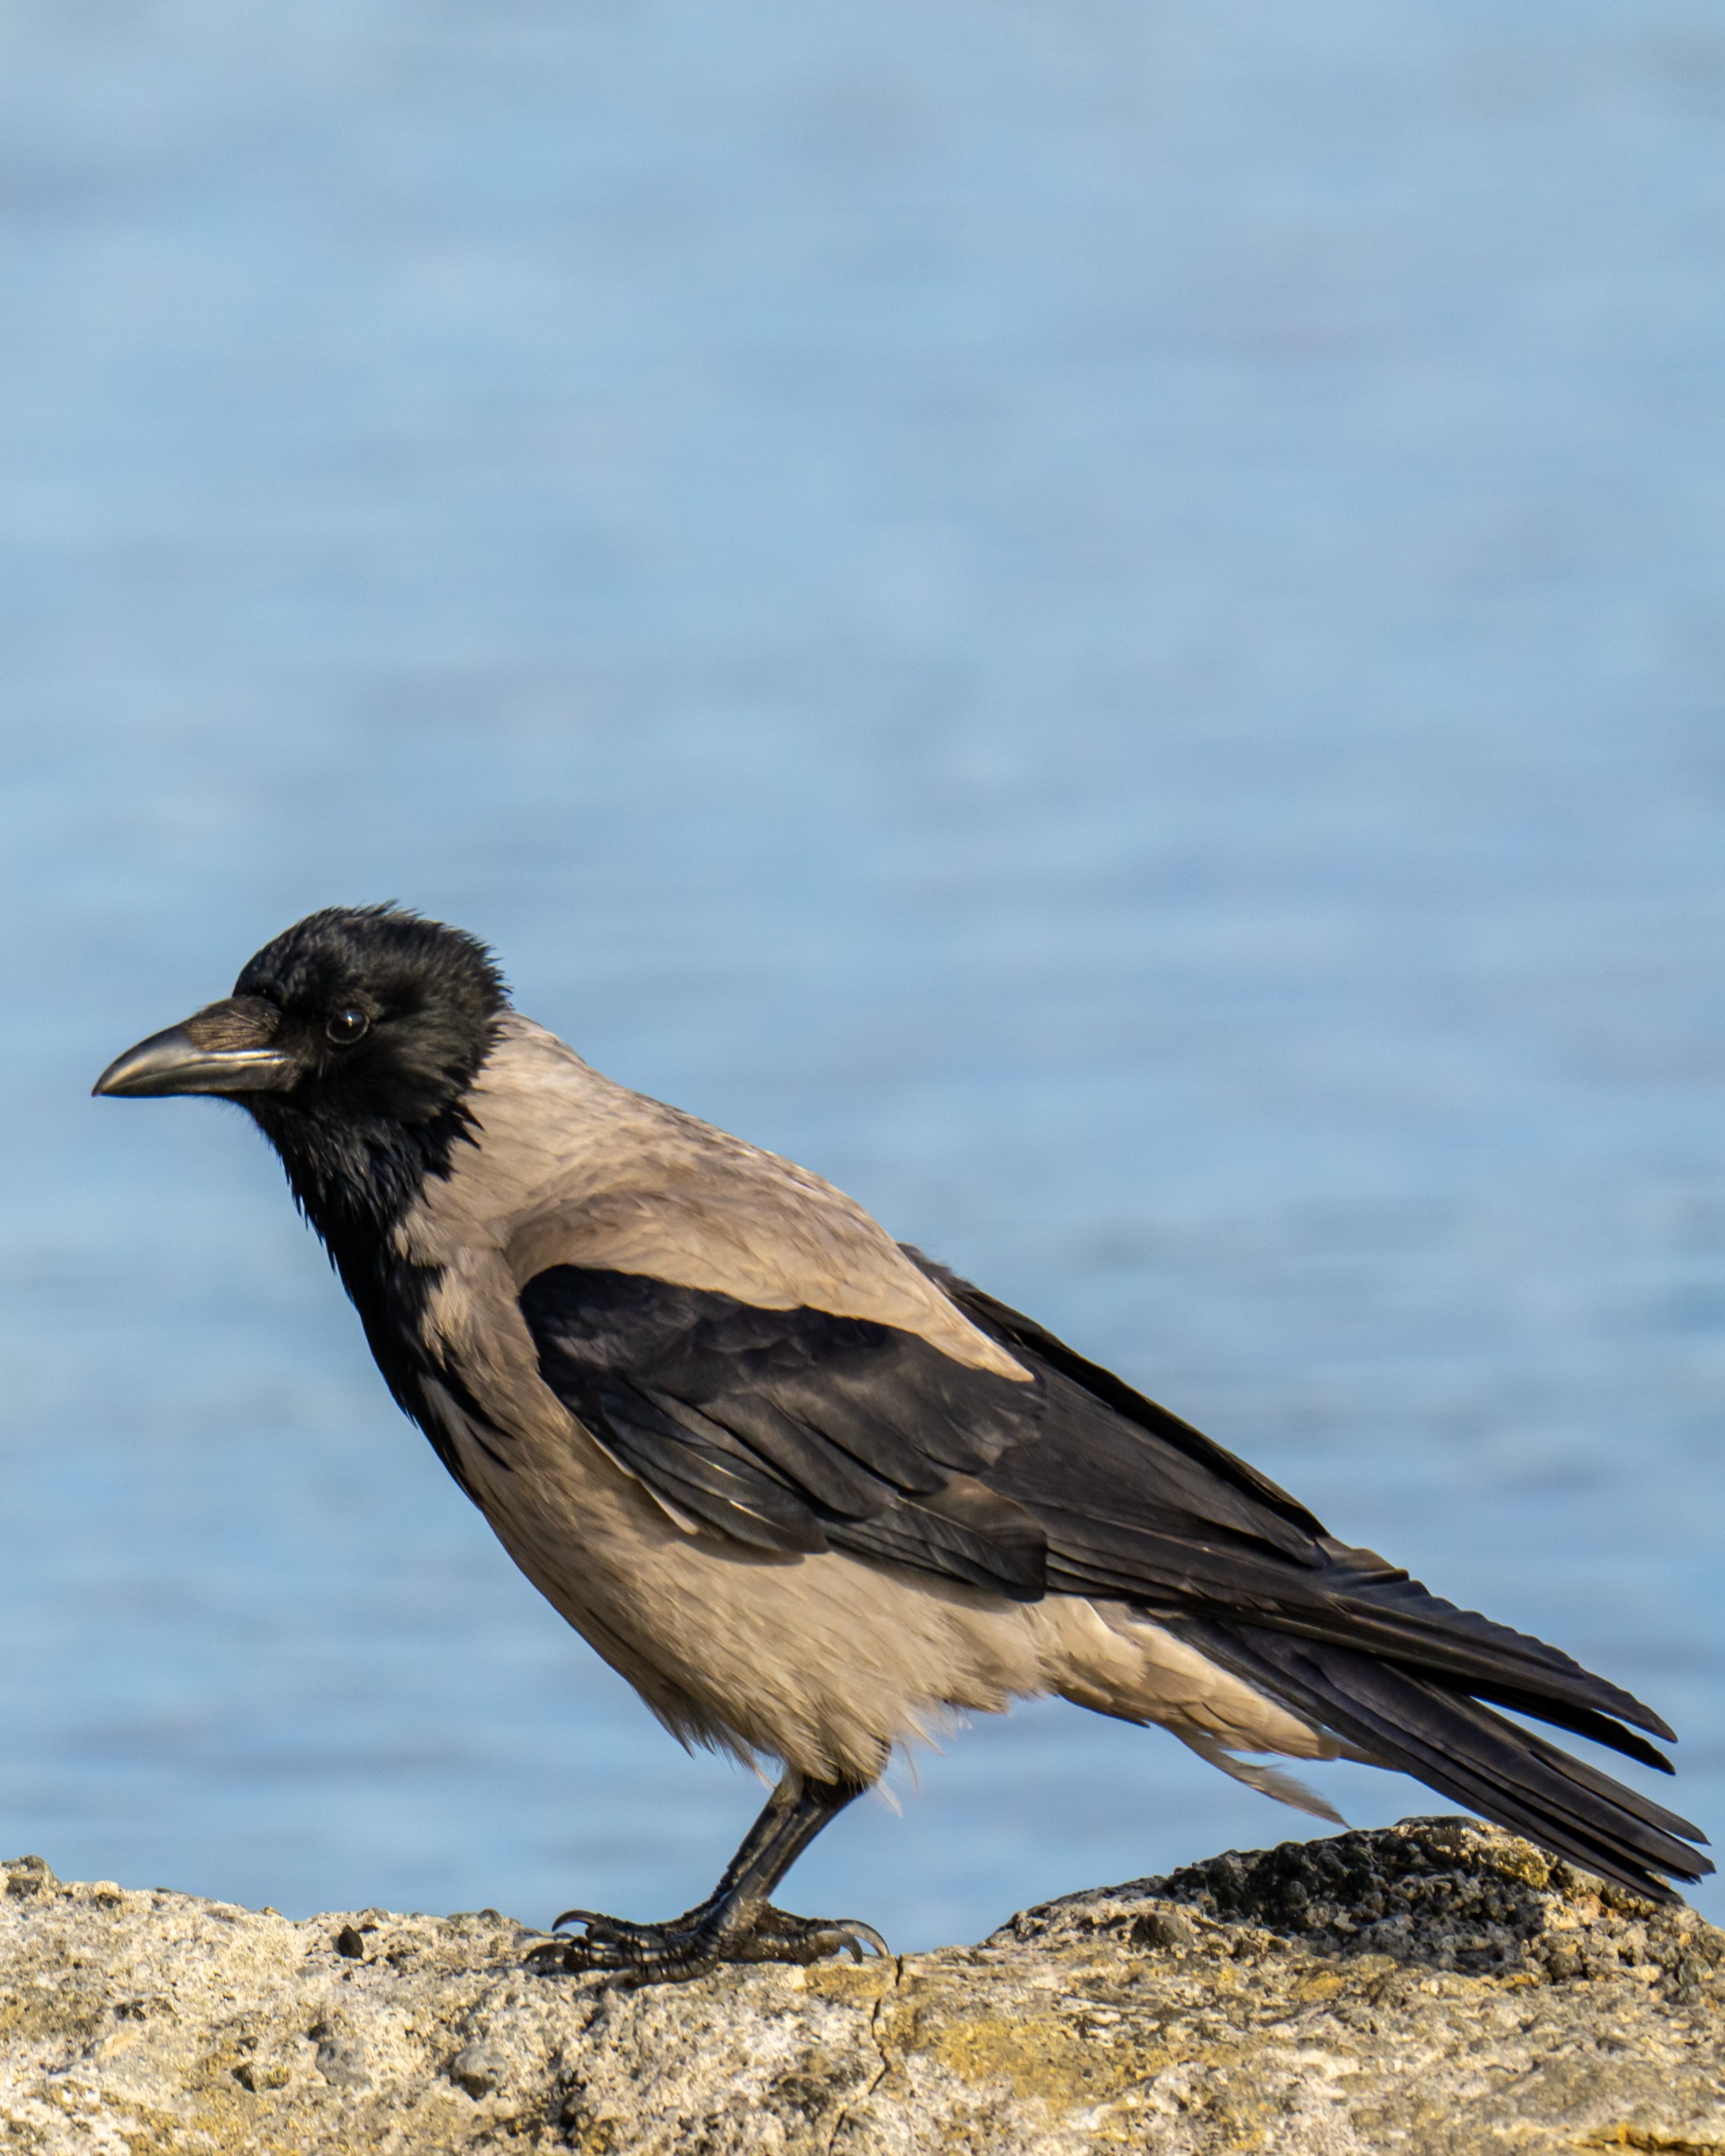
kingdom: Animalia
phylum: Chordata
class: Aves
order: Passeriformes
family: Corvidae
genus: Corvus
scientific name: Corvus cornix
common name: Gråkrage
